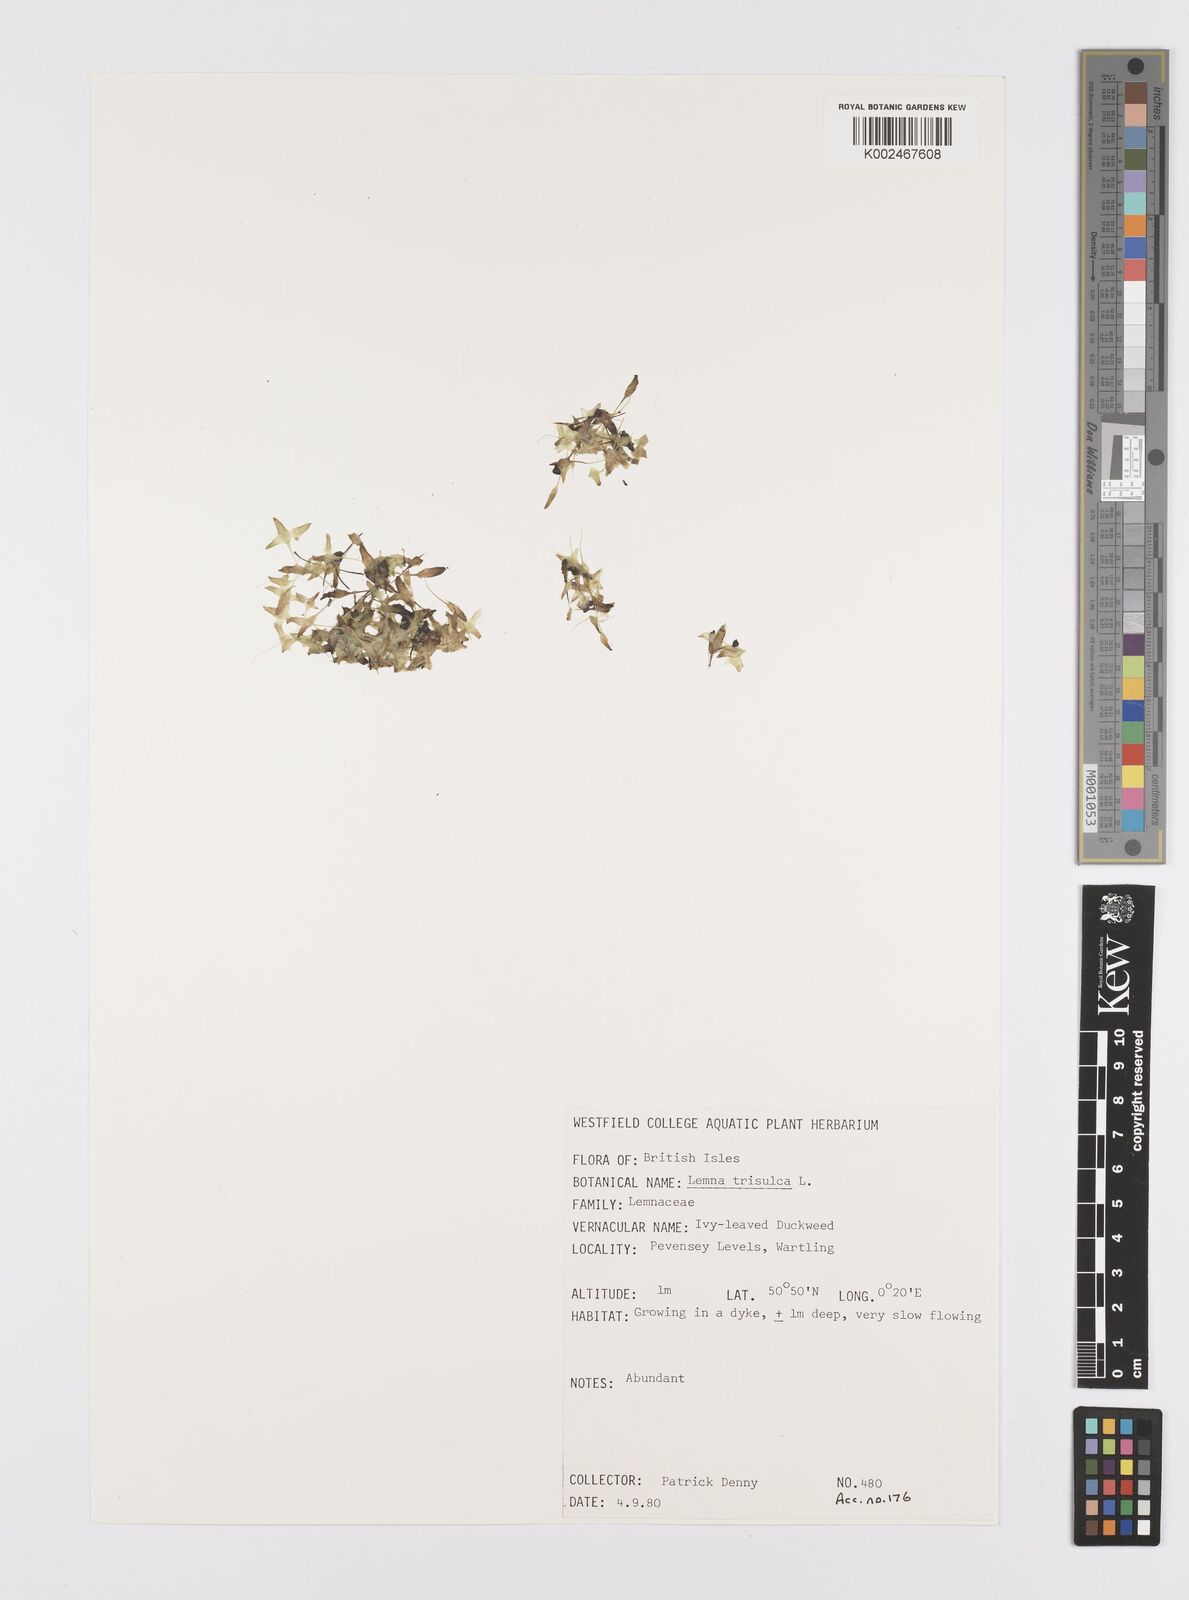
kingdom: Plantae
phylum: Tracheophyta
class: Liliopsida
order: Alismatales
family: Araceae
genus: Lemna
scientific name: Lemna trisulca
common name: Ivy-leaved duckweed
